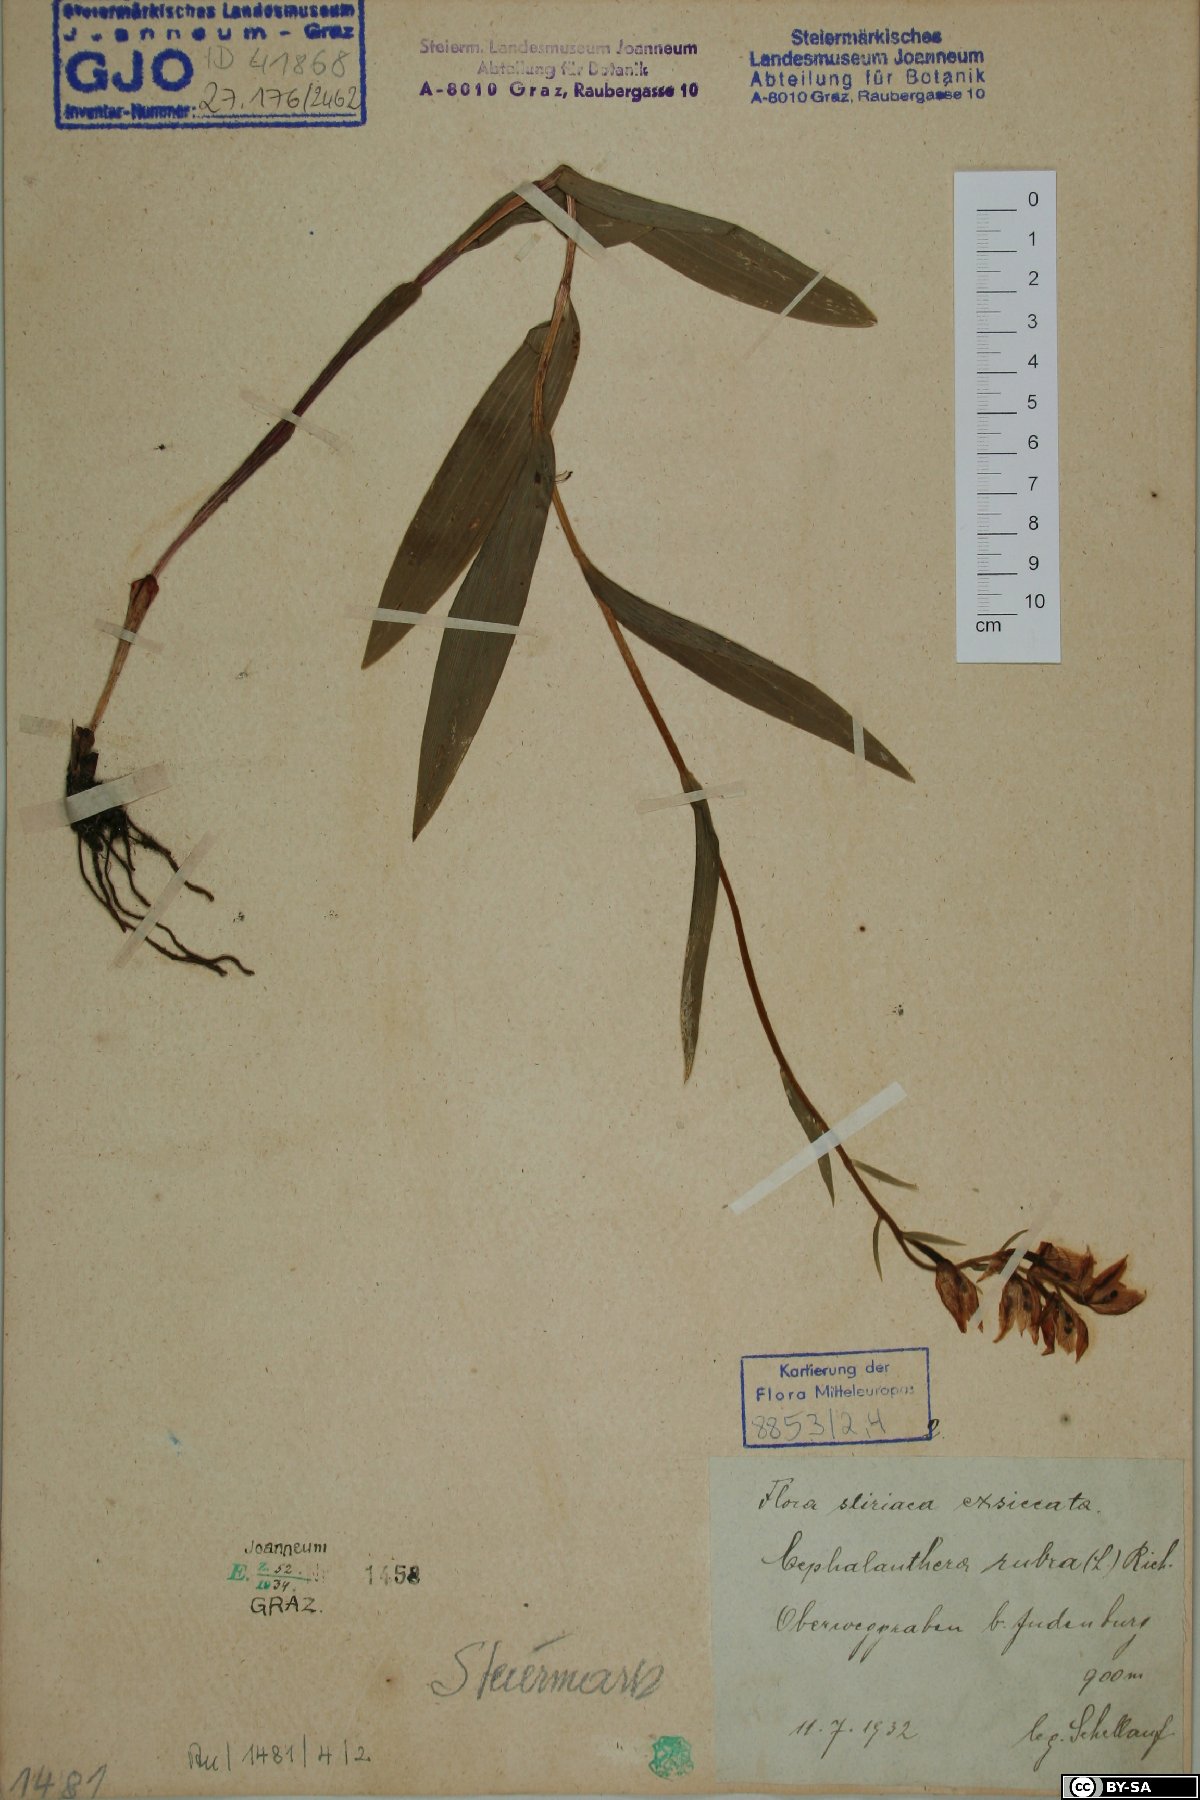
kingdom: Plantae
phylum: Tracheophyta
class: Liliopsida
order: Asparagales
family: Orchidaceae
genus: Cephalanthera
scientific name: Cephalanthera rubra
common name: Red helleborine
